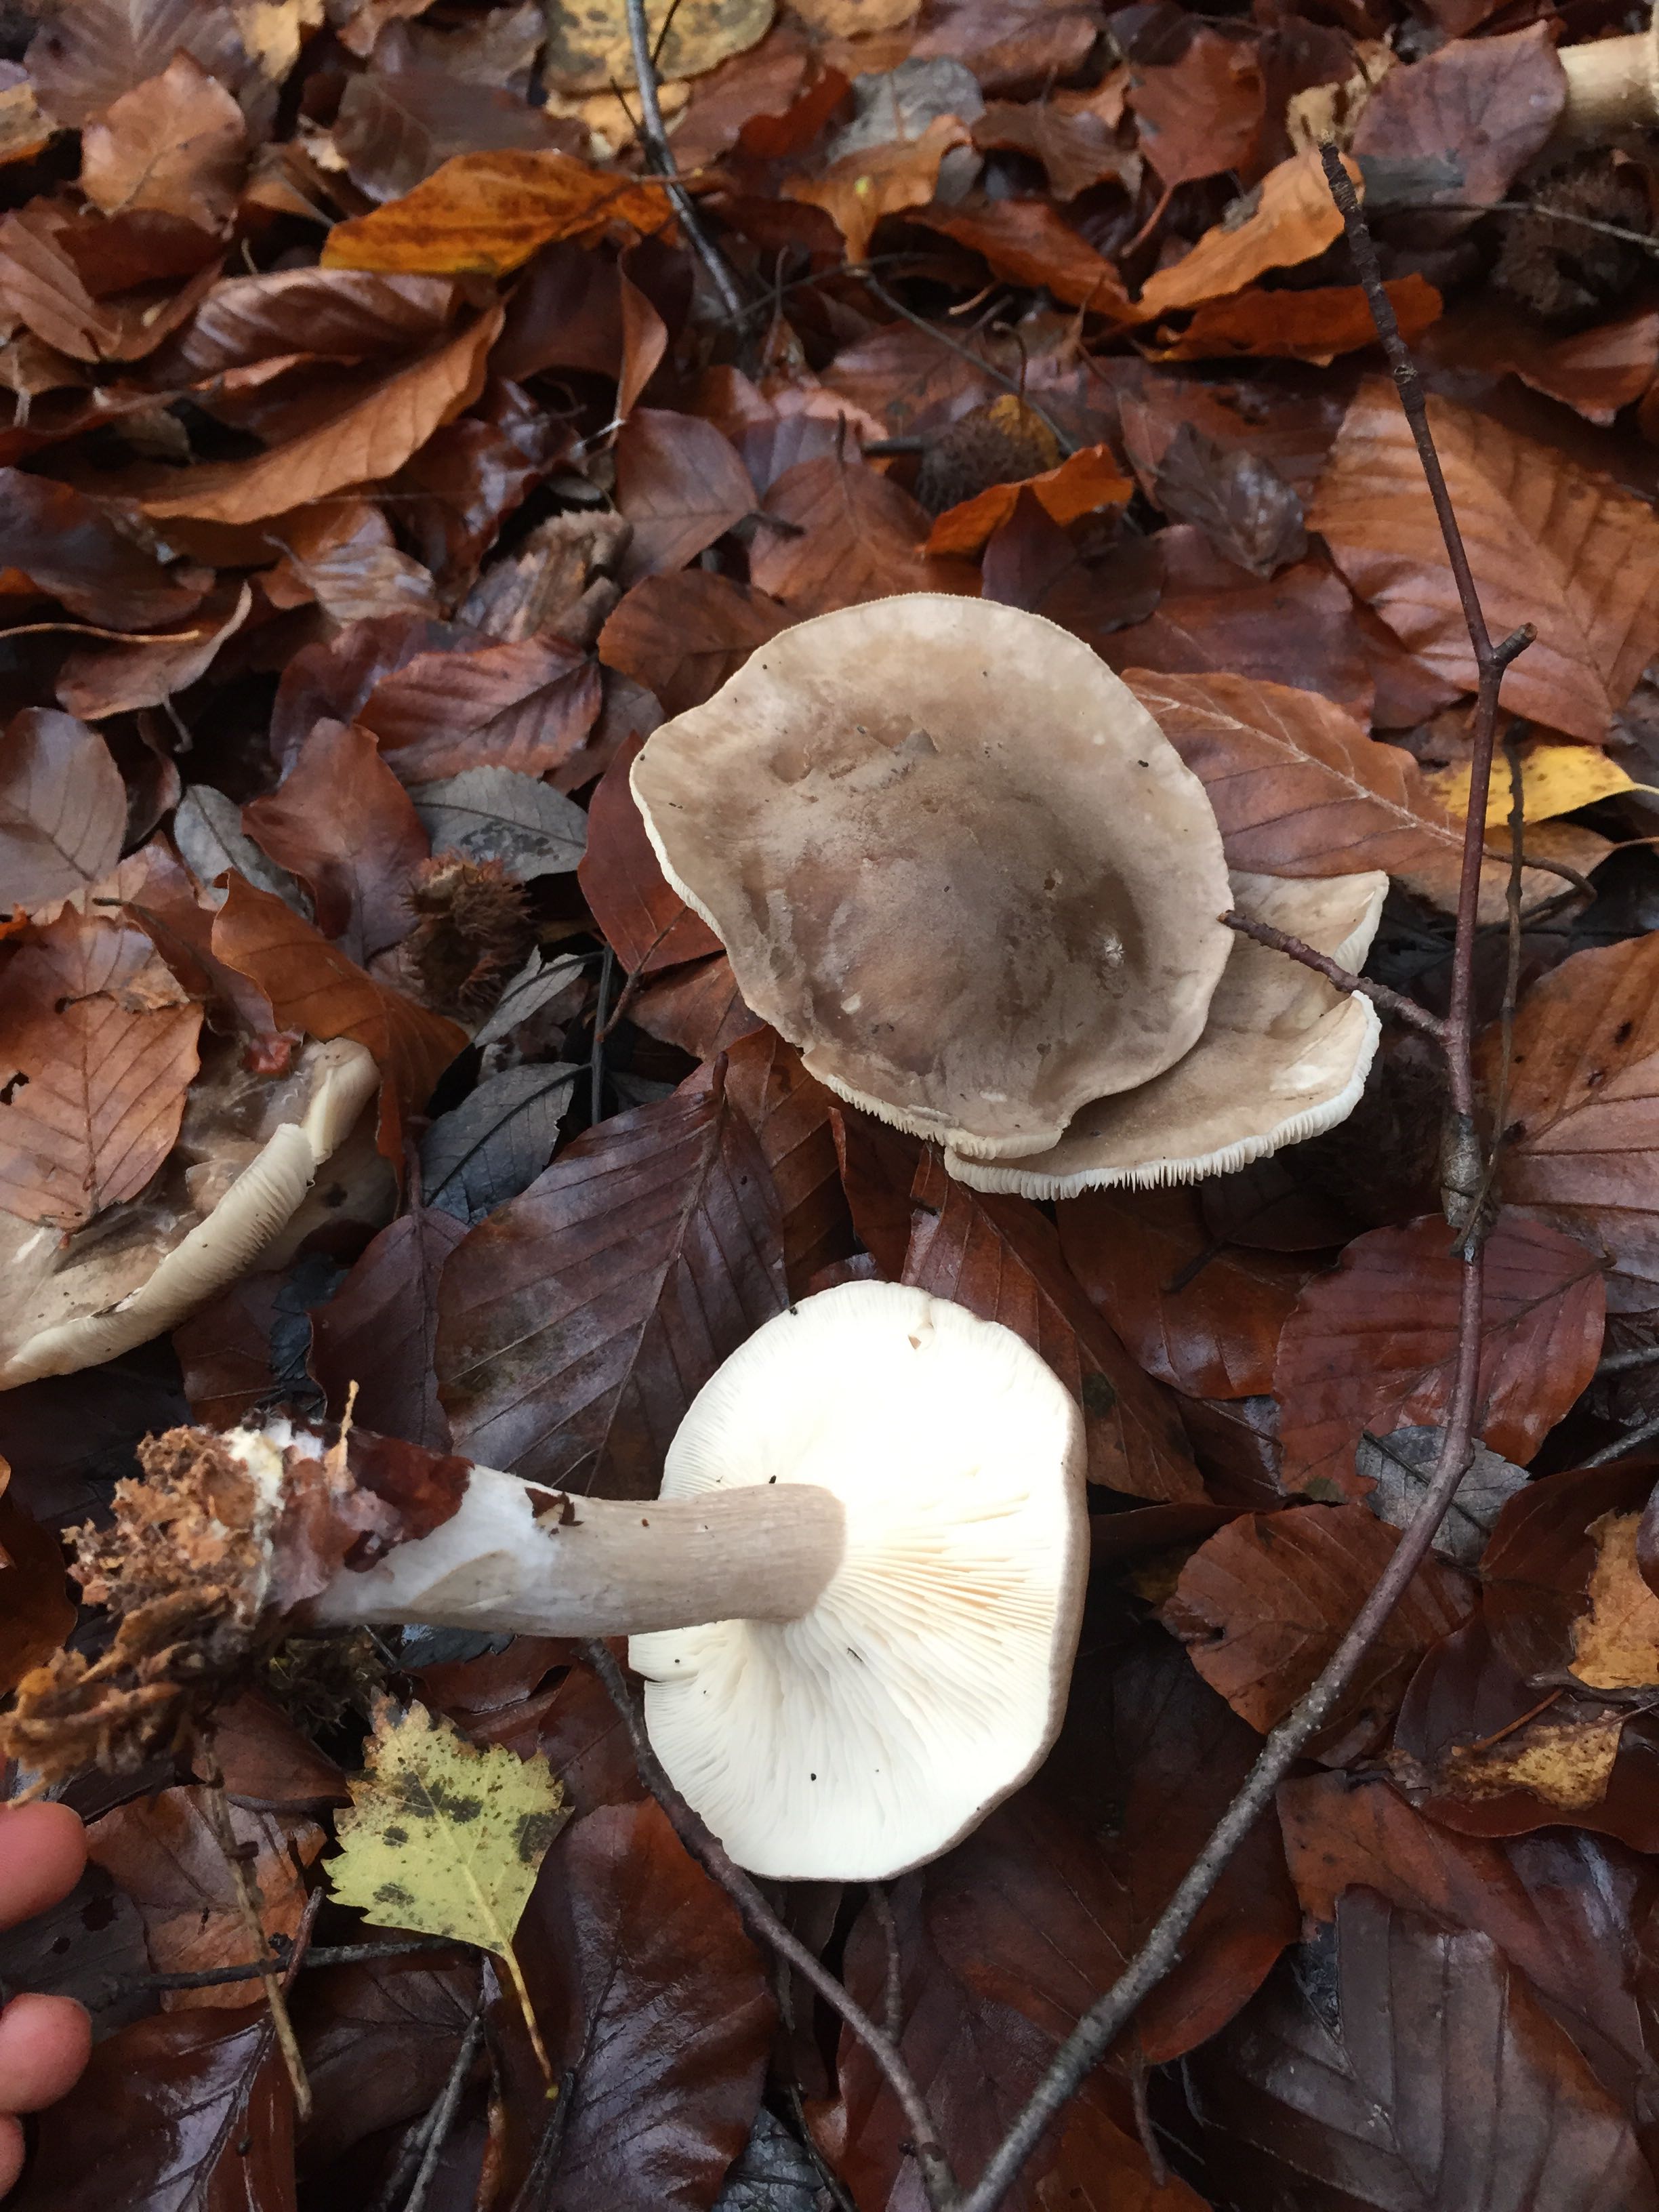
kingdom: Fungi
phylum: Basidiomycota
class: Agaricomycetes
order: Agaricales
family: Tricholomataceae
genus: Clitocybe
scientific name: Clitocybe nebularis
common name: tåge-tragthat
